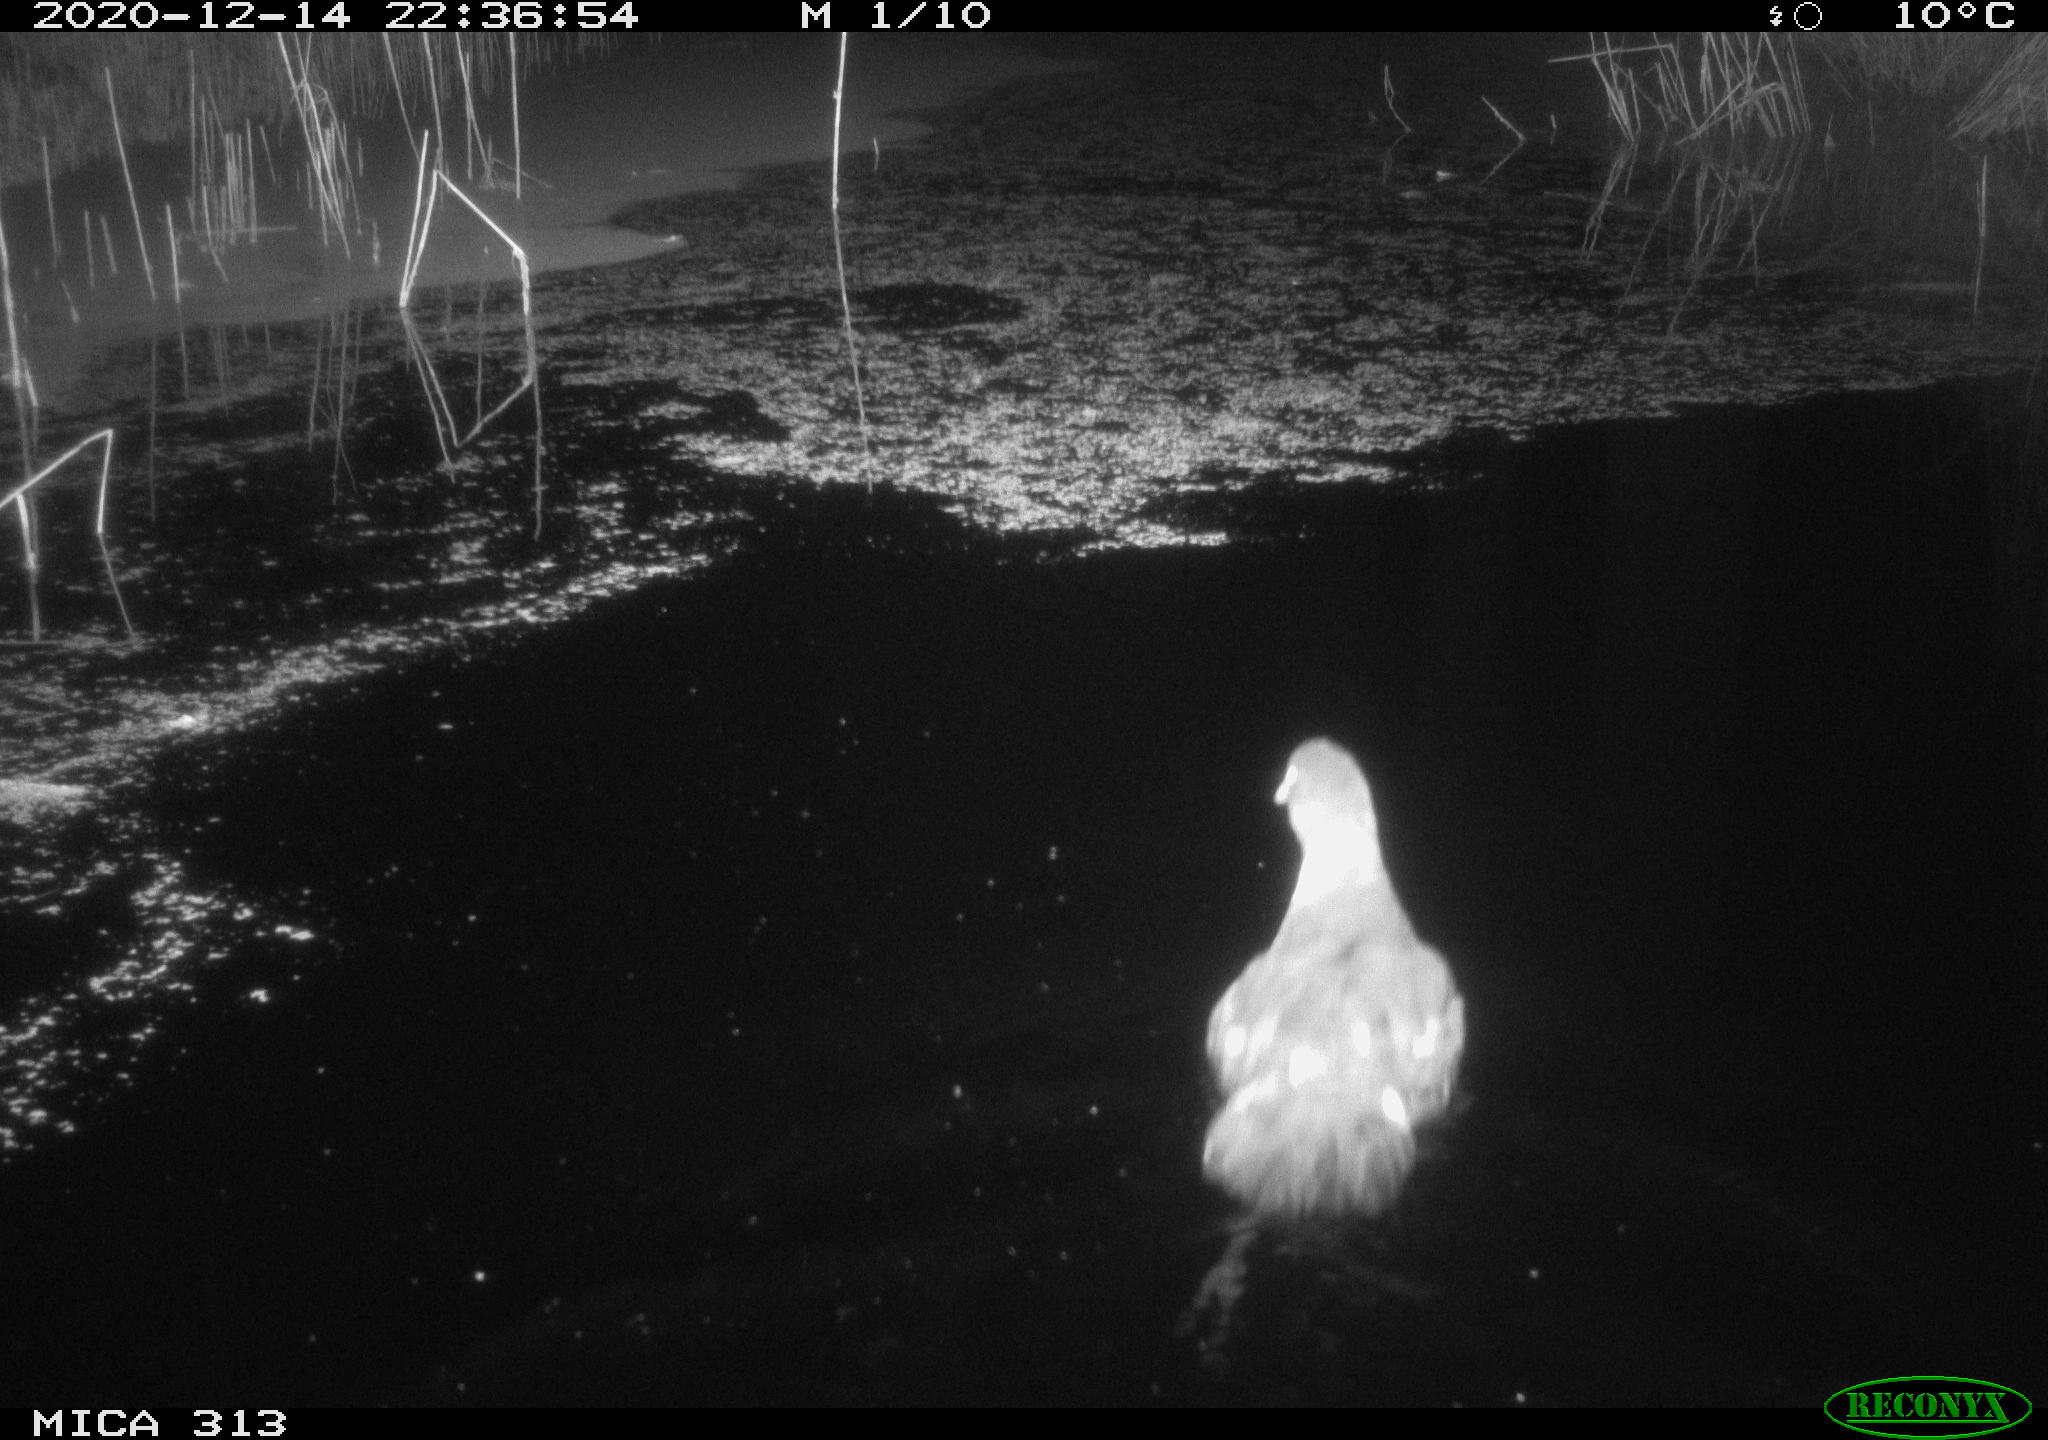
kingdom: Animalia
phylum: Chordata
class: Aves
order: Gruiformes
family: Rallidae
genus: Gallinula
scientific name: Gallinula chloropus
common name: Common moorhen
